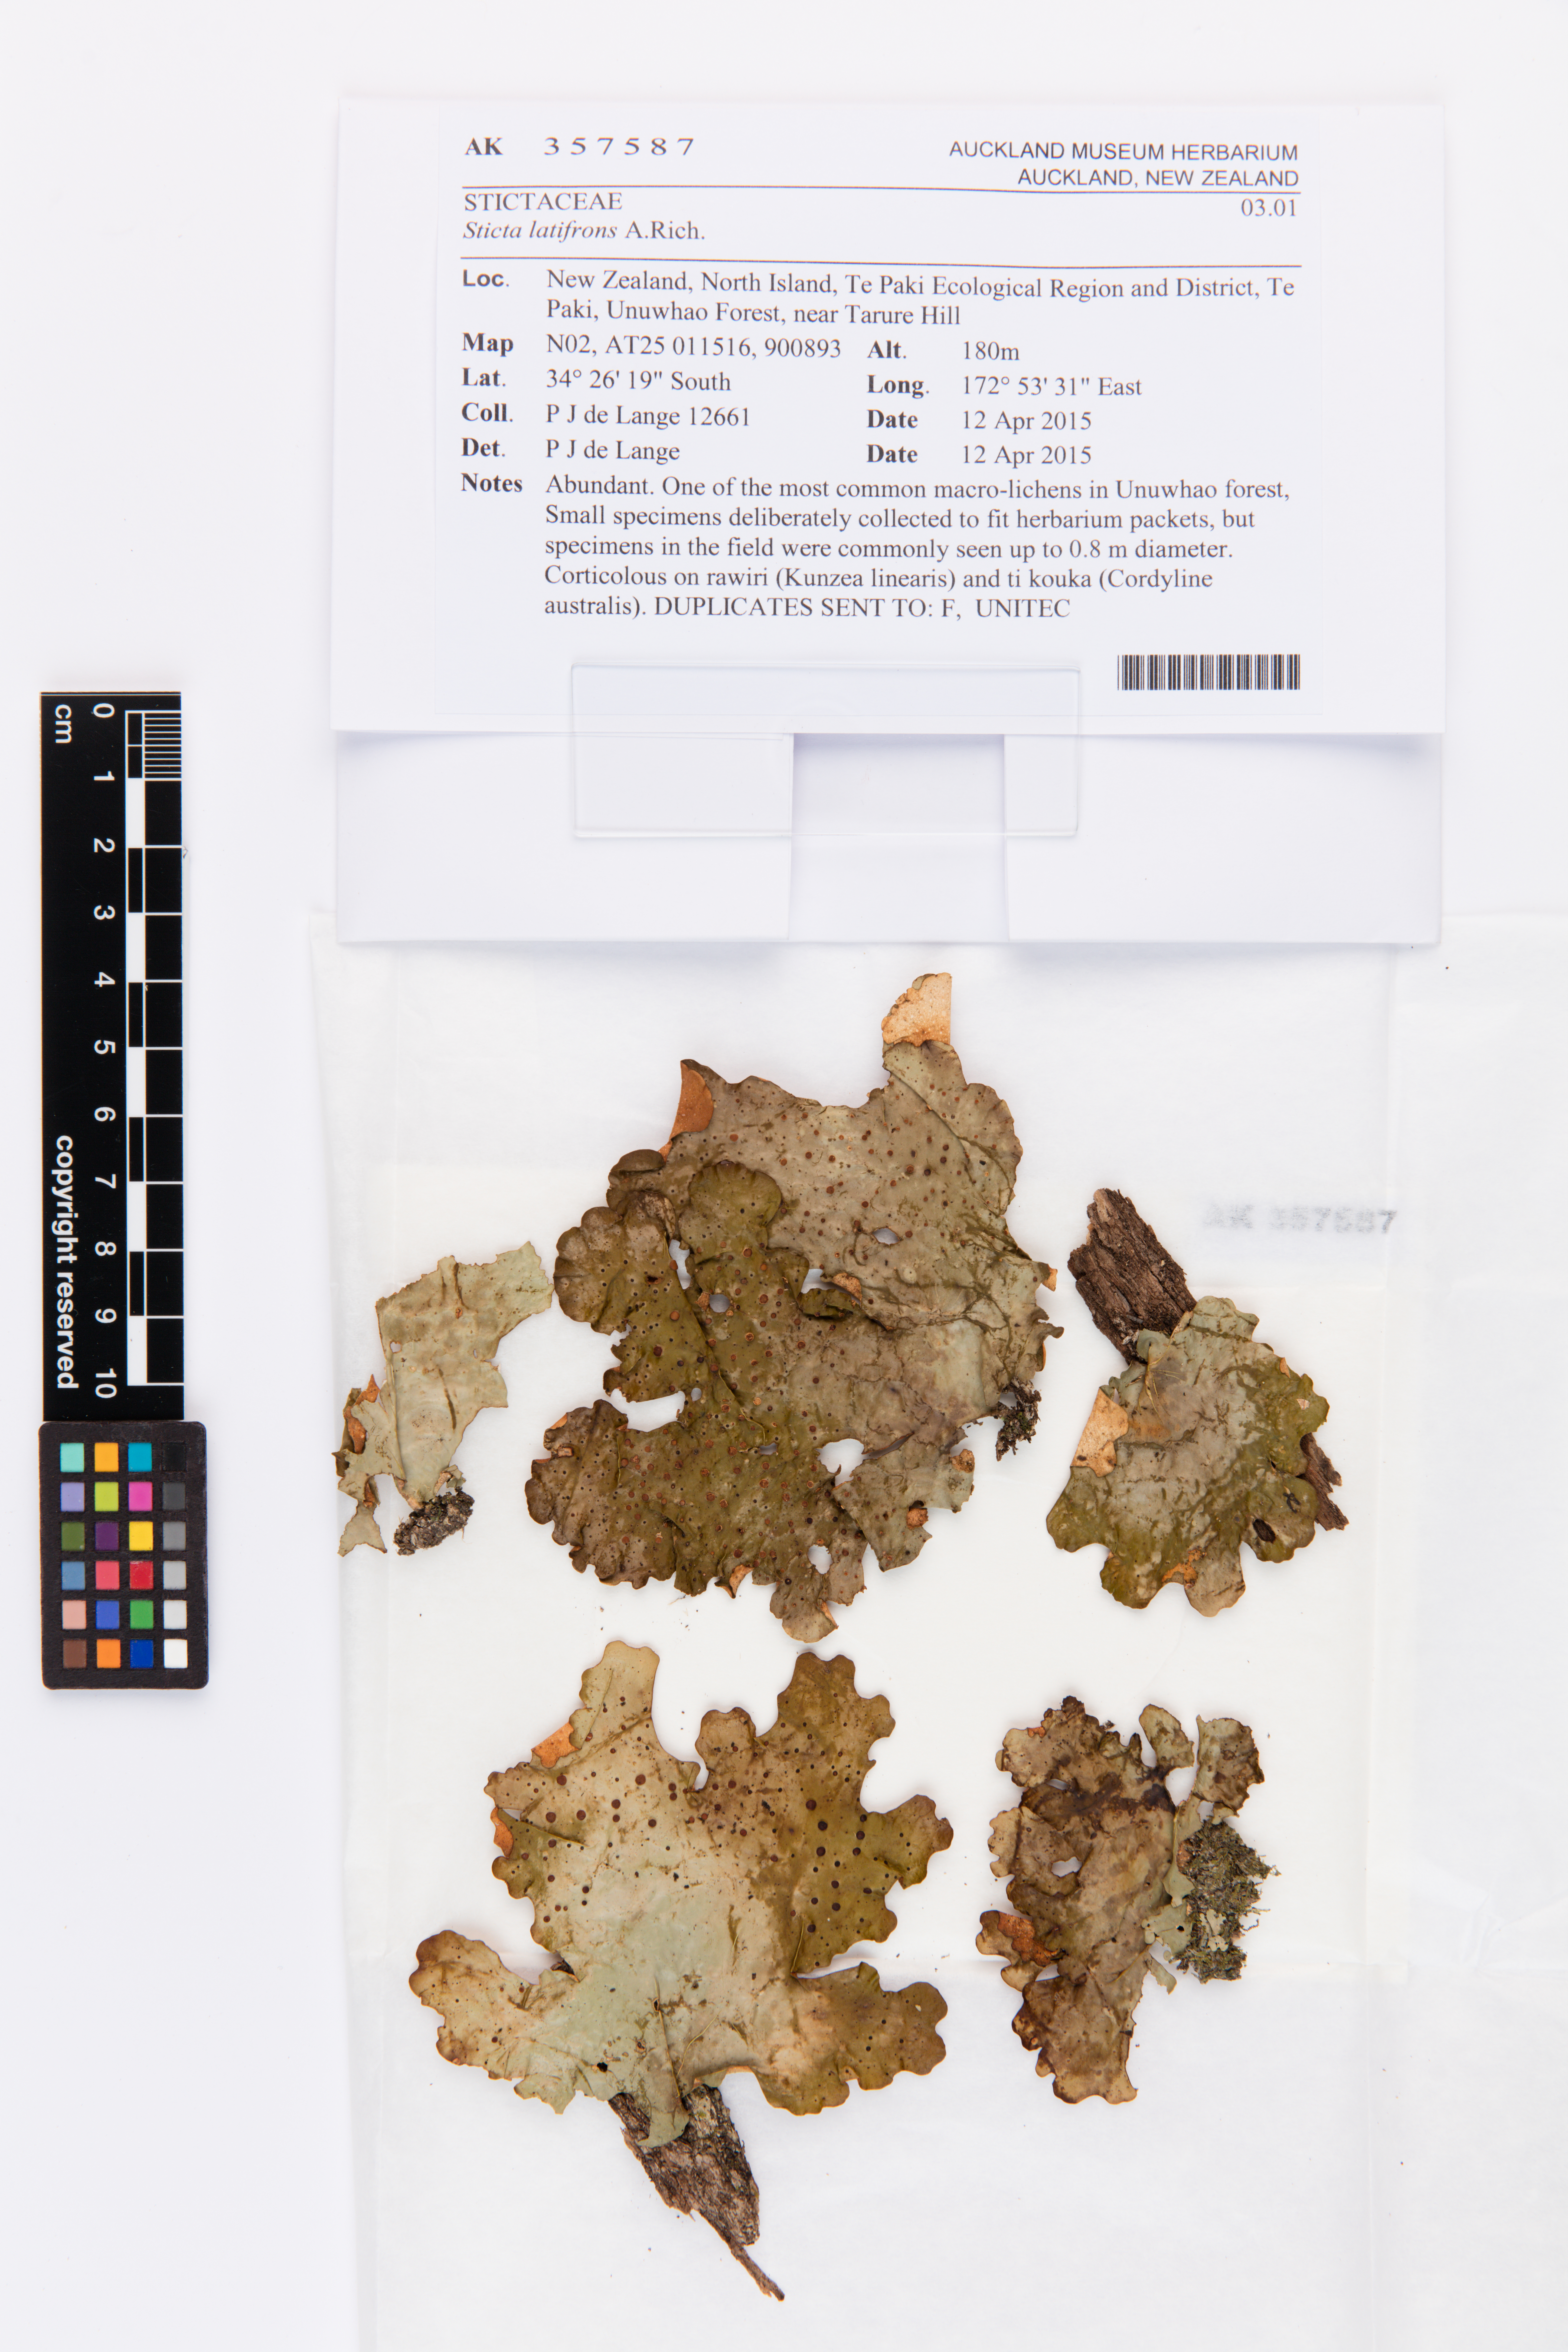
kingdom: Fungi
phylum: Ascomycota
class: Lecanoromycetes
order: Peltigerales
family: Lobariaceae
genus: Sticta
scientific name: Sticta latifrons
